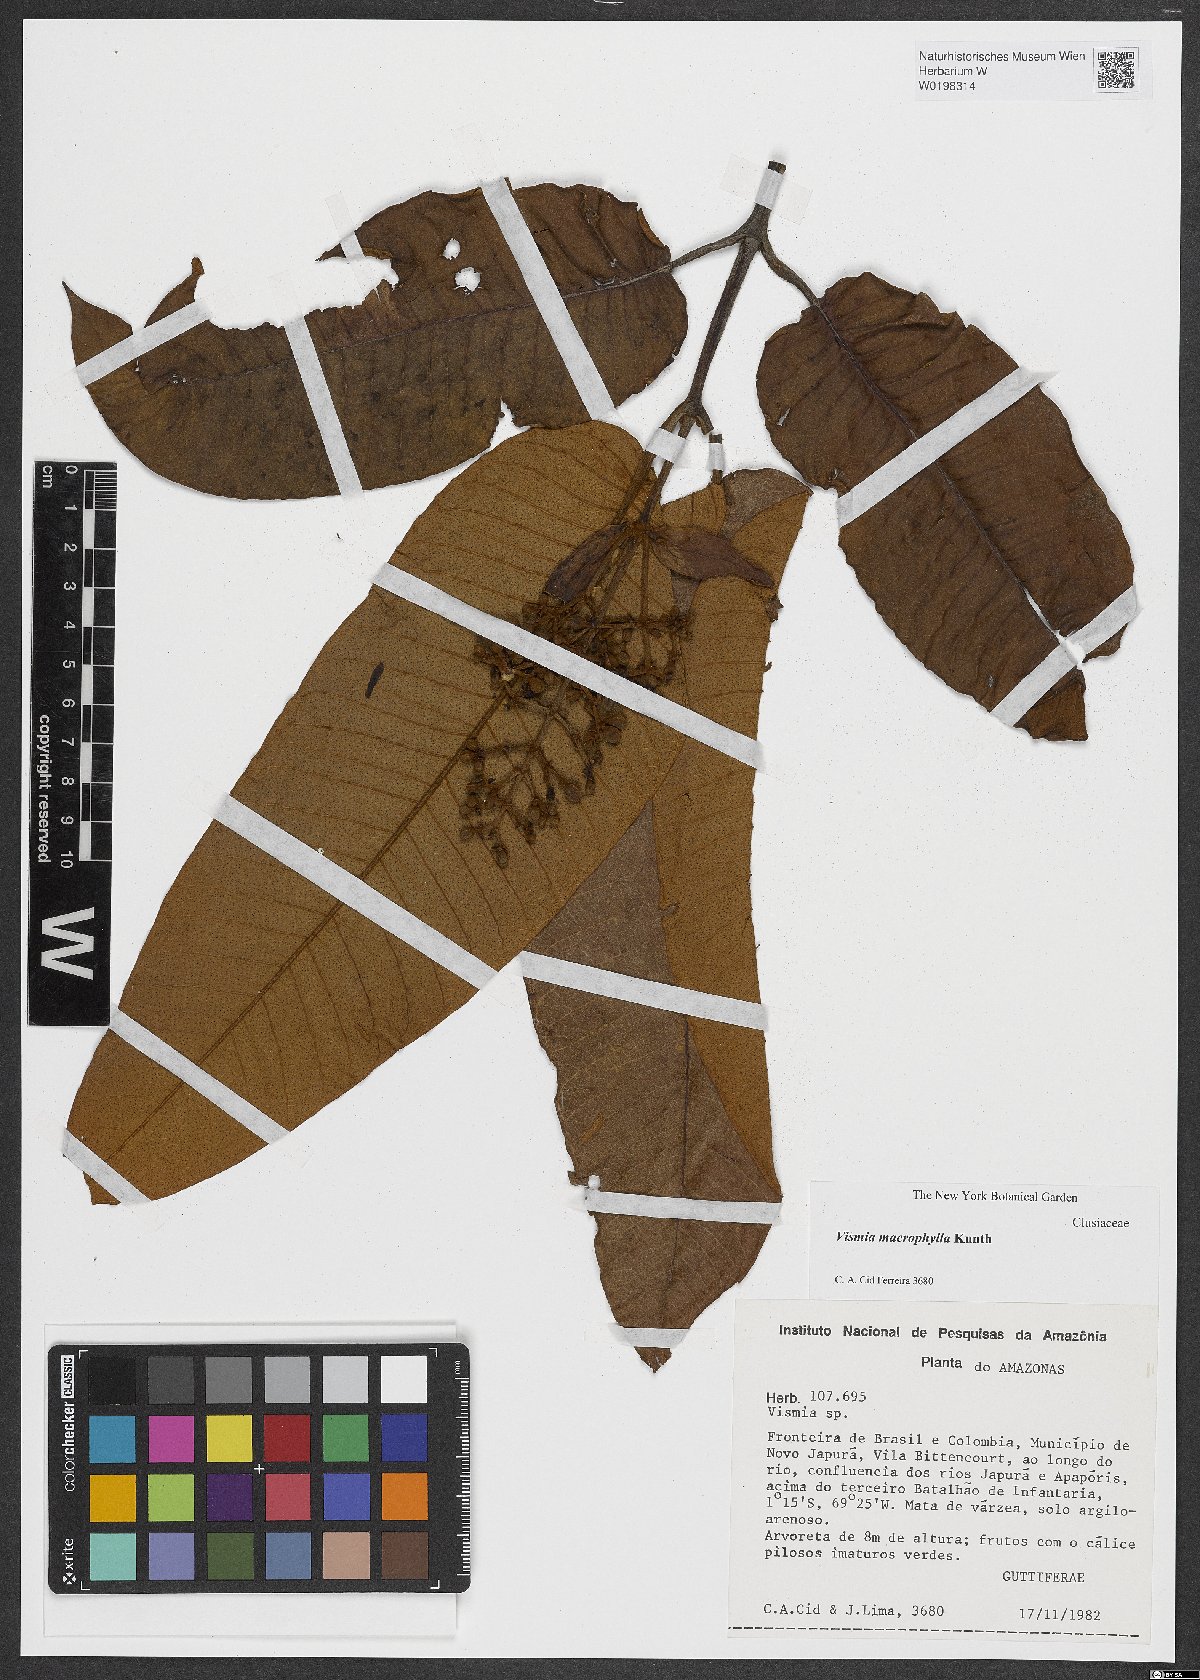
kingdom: Plantae
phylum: Tracheophyta
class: Magnoliopsida
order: Malpighiales
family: Hypericaceae
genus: Vismia
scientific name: Vismia macrophylla
